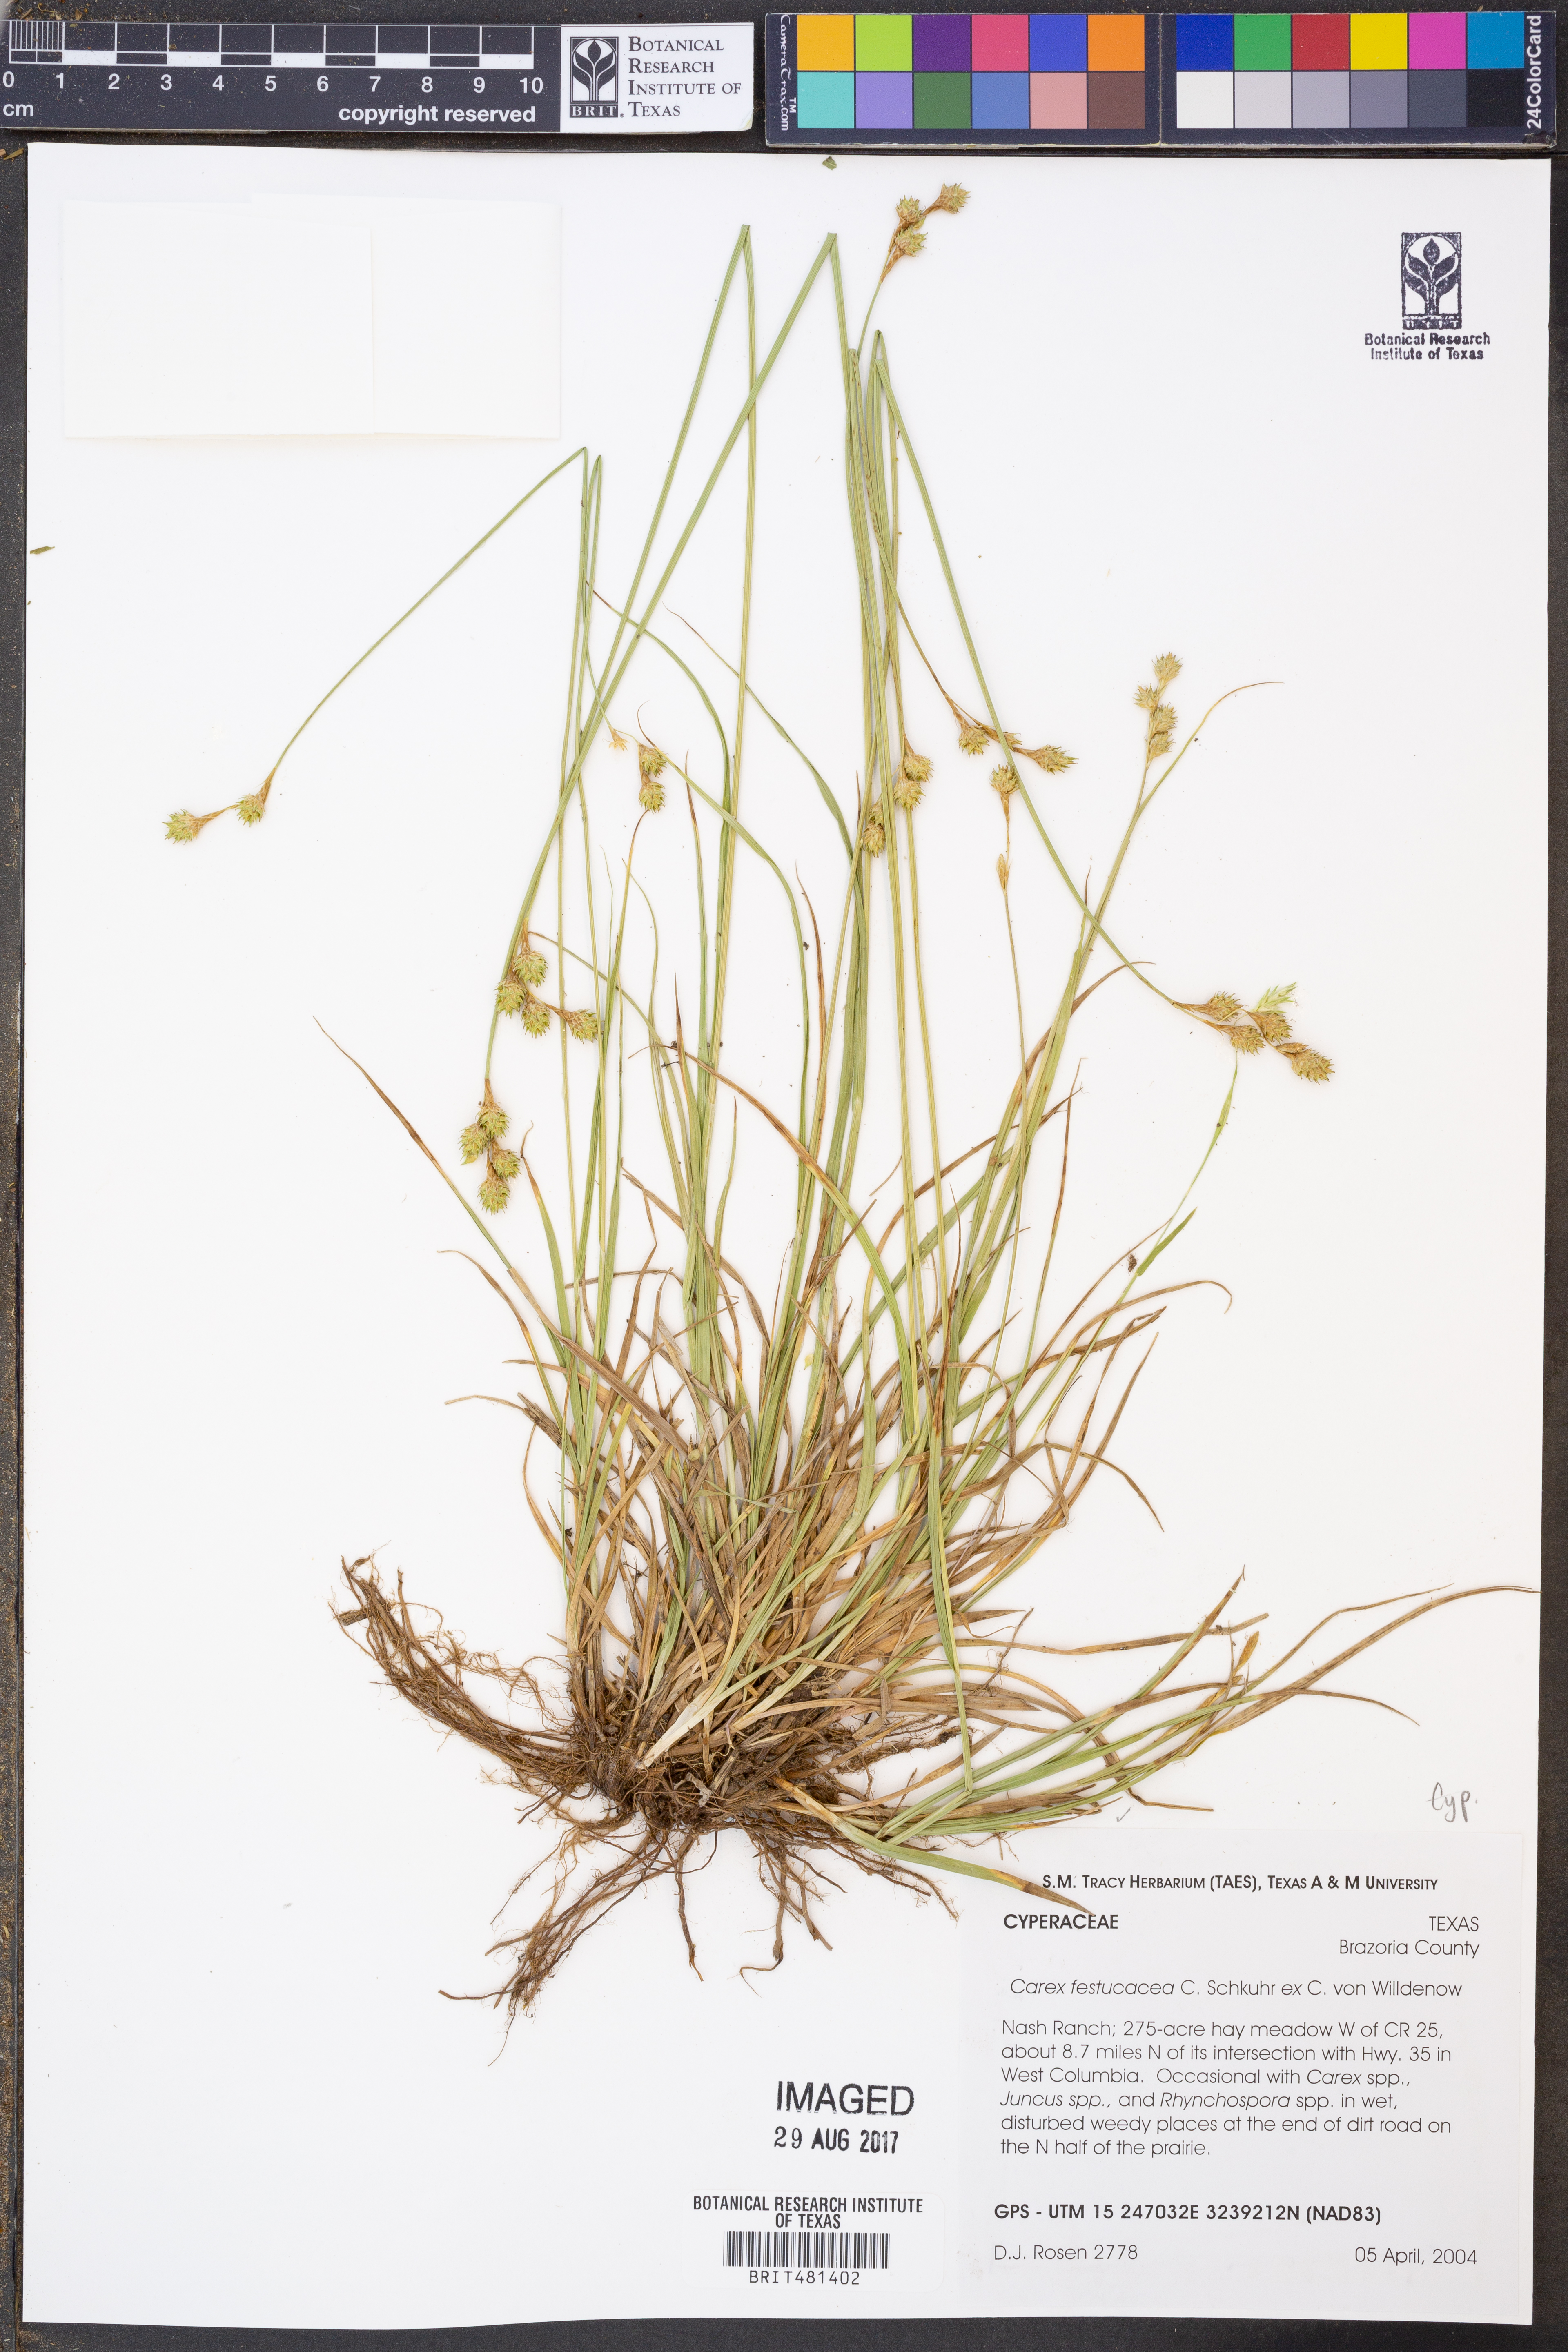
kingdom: Plantae
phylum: Tracheophyta
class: Liliopsida
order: Poales
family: Cyperaceae
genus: Carex
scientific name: Carex festucacea
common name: Fescue oval sedge
